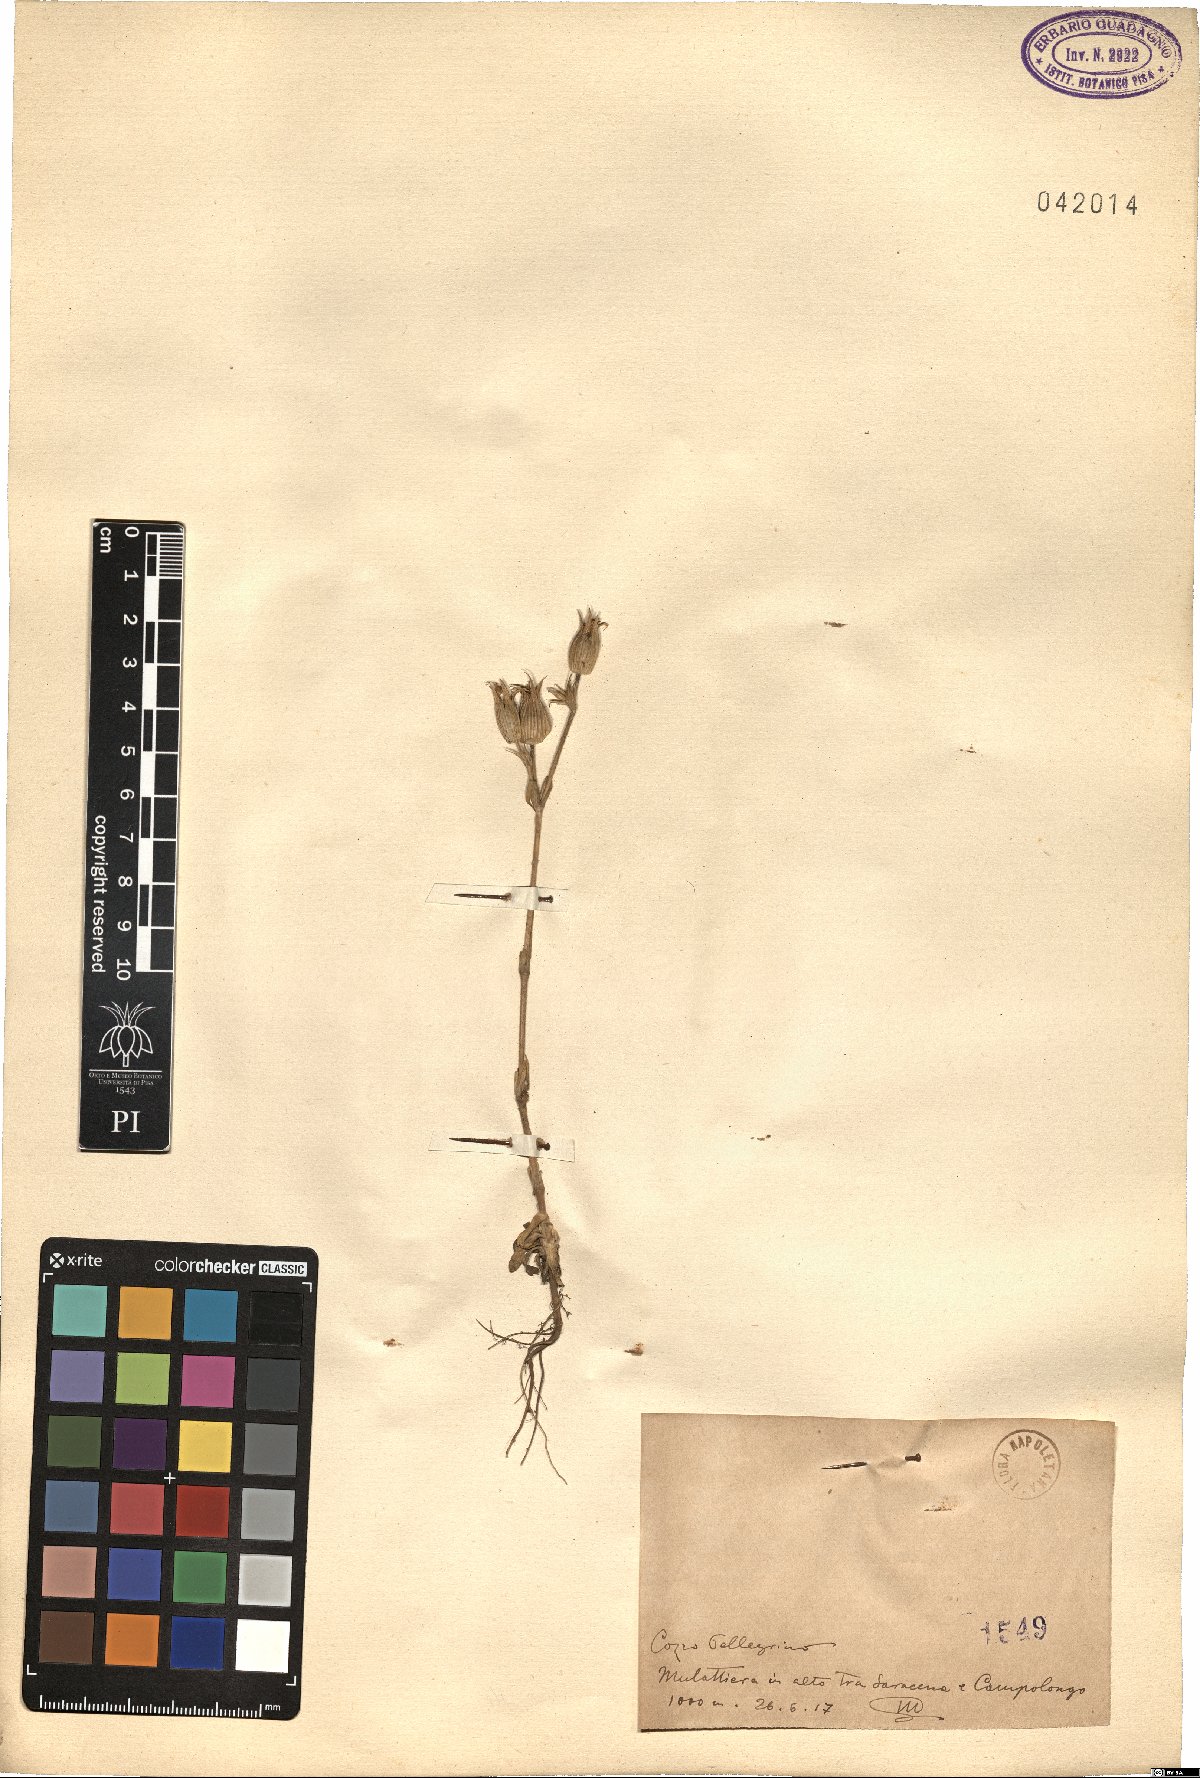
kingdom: Plantae
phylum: Tracheophyta
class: Magnoliopsida
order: Caryophyllales
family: Caryophyllaceae
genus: Silene
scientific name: Silene
